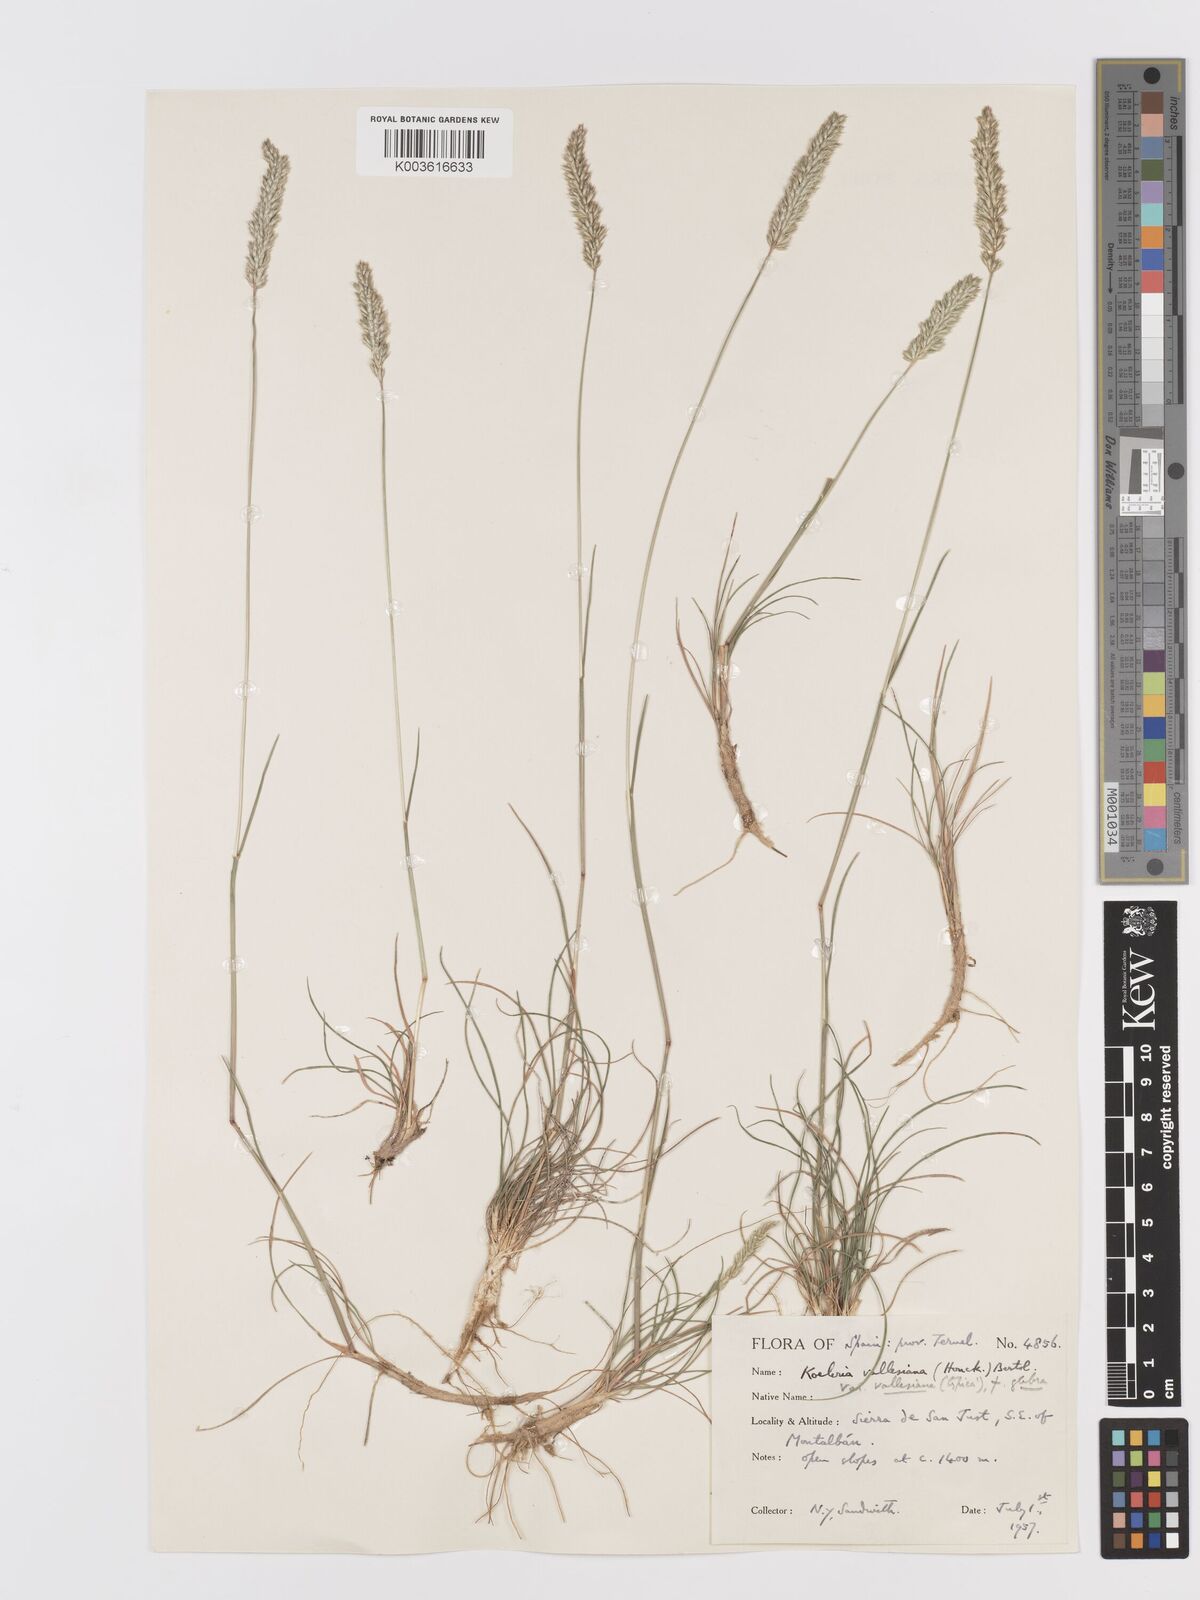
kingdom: Plantae
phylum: Tracheophyta
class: Liliopsida
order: Poales
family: Poaceae
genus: Koeleria
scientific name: Koeleria vallesiana
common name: Somerset hair-grass
